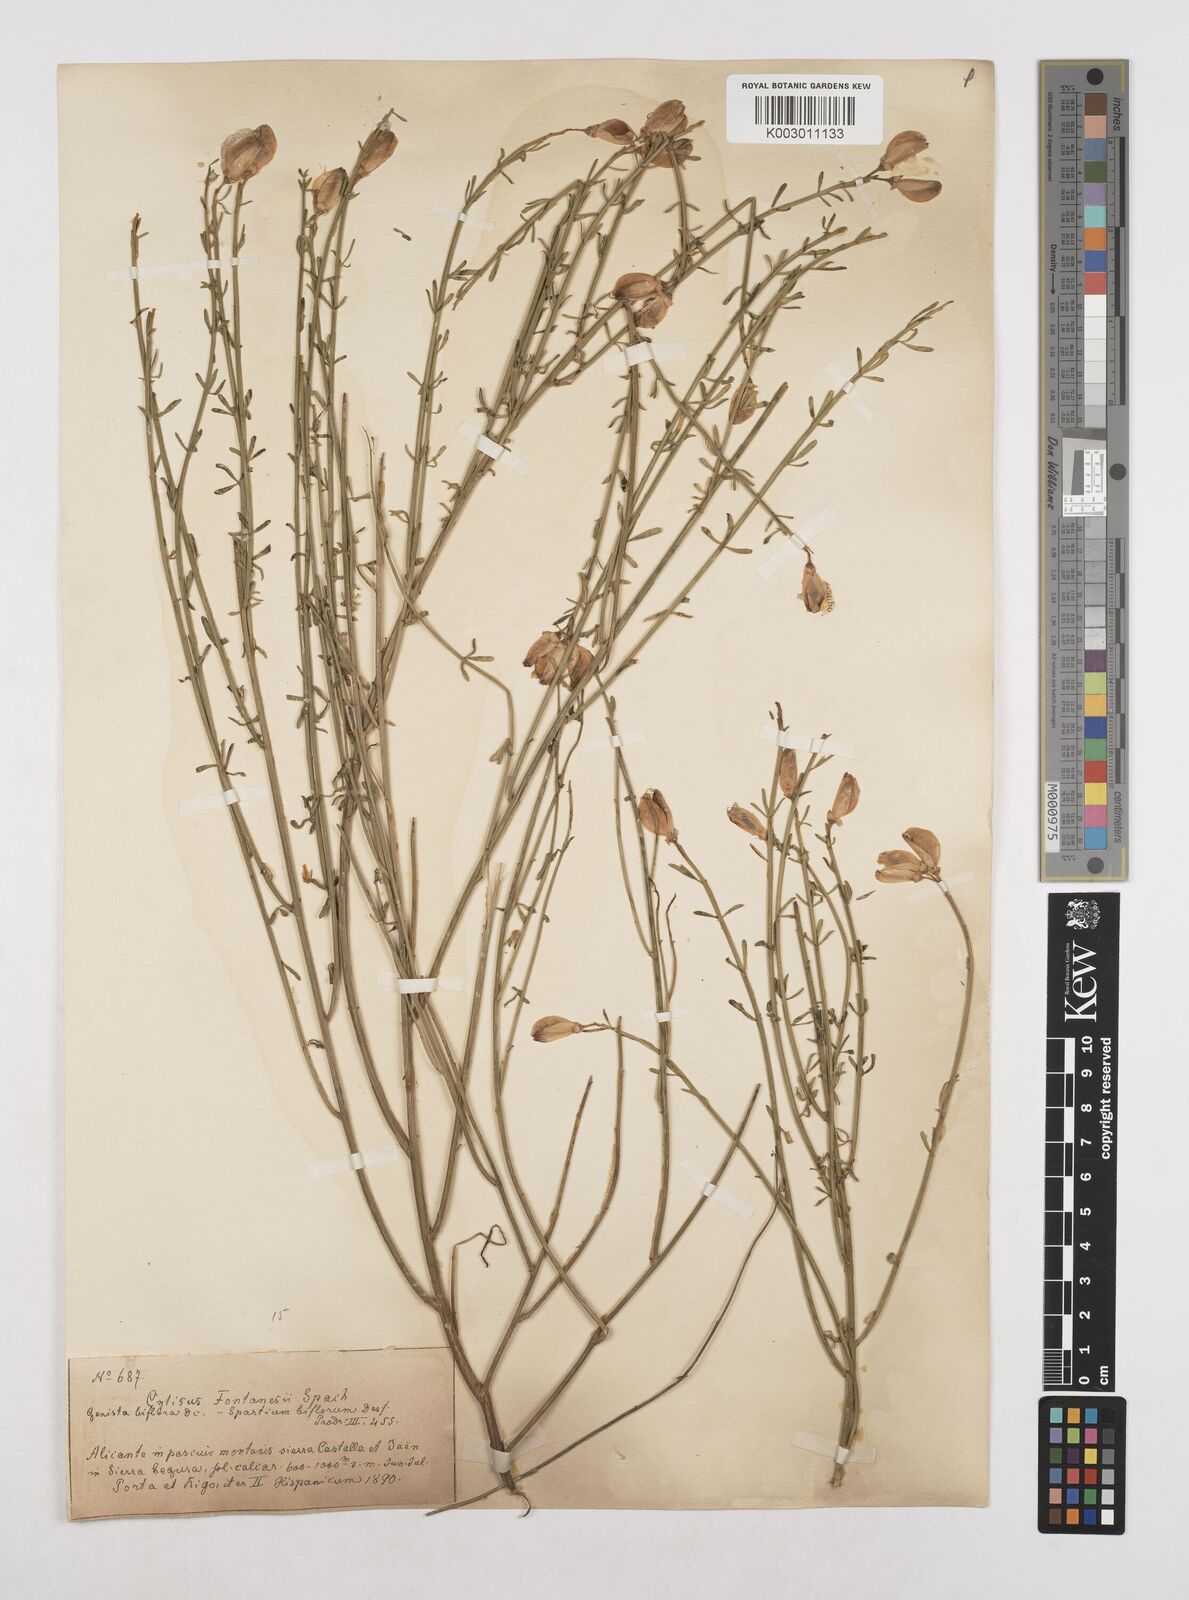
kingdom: Plantae
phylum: Tracheophyta
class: Magnoliopsida
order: Fabales
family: Fabaceae
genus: Cytisus
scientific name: Cytisus fontanesii
